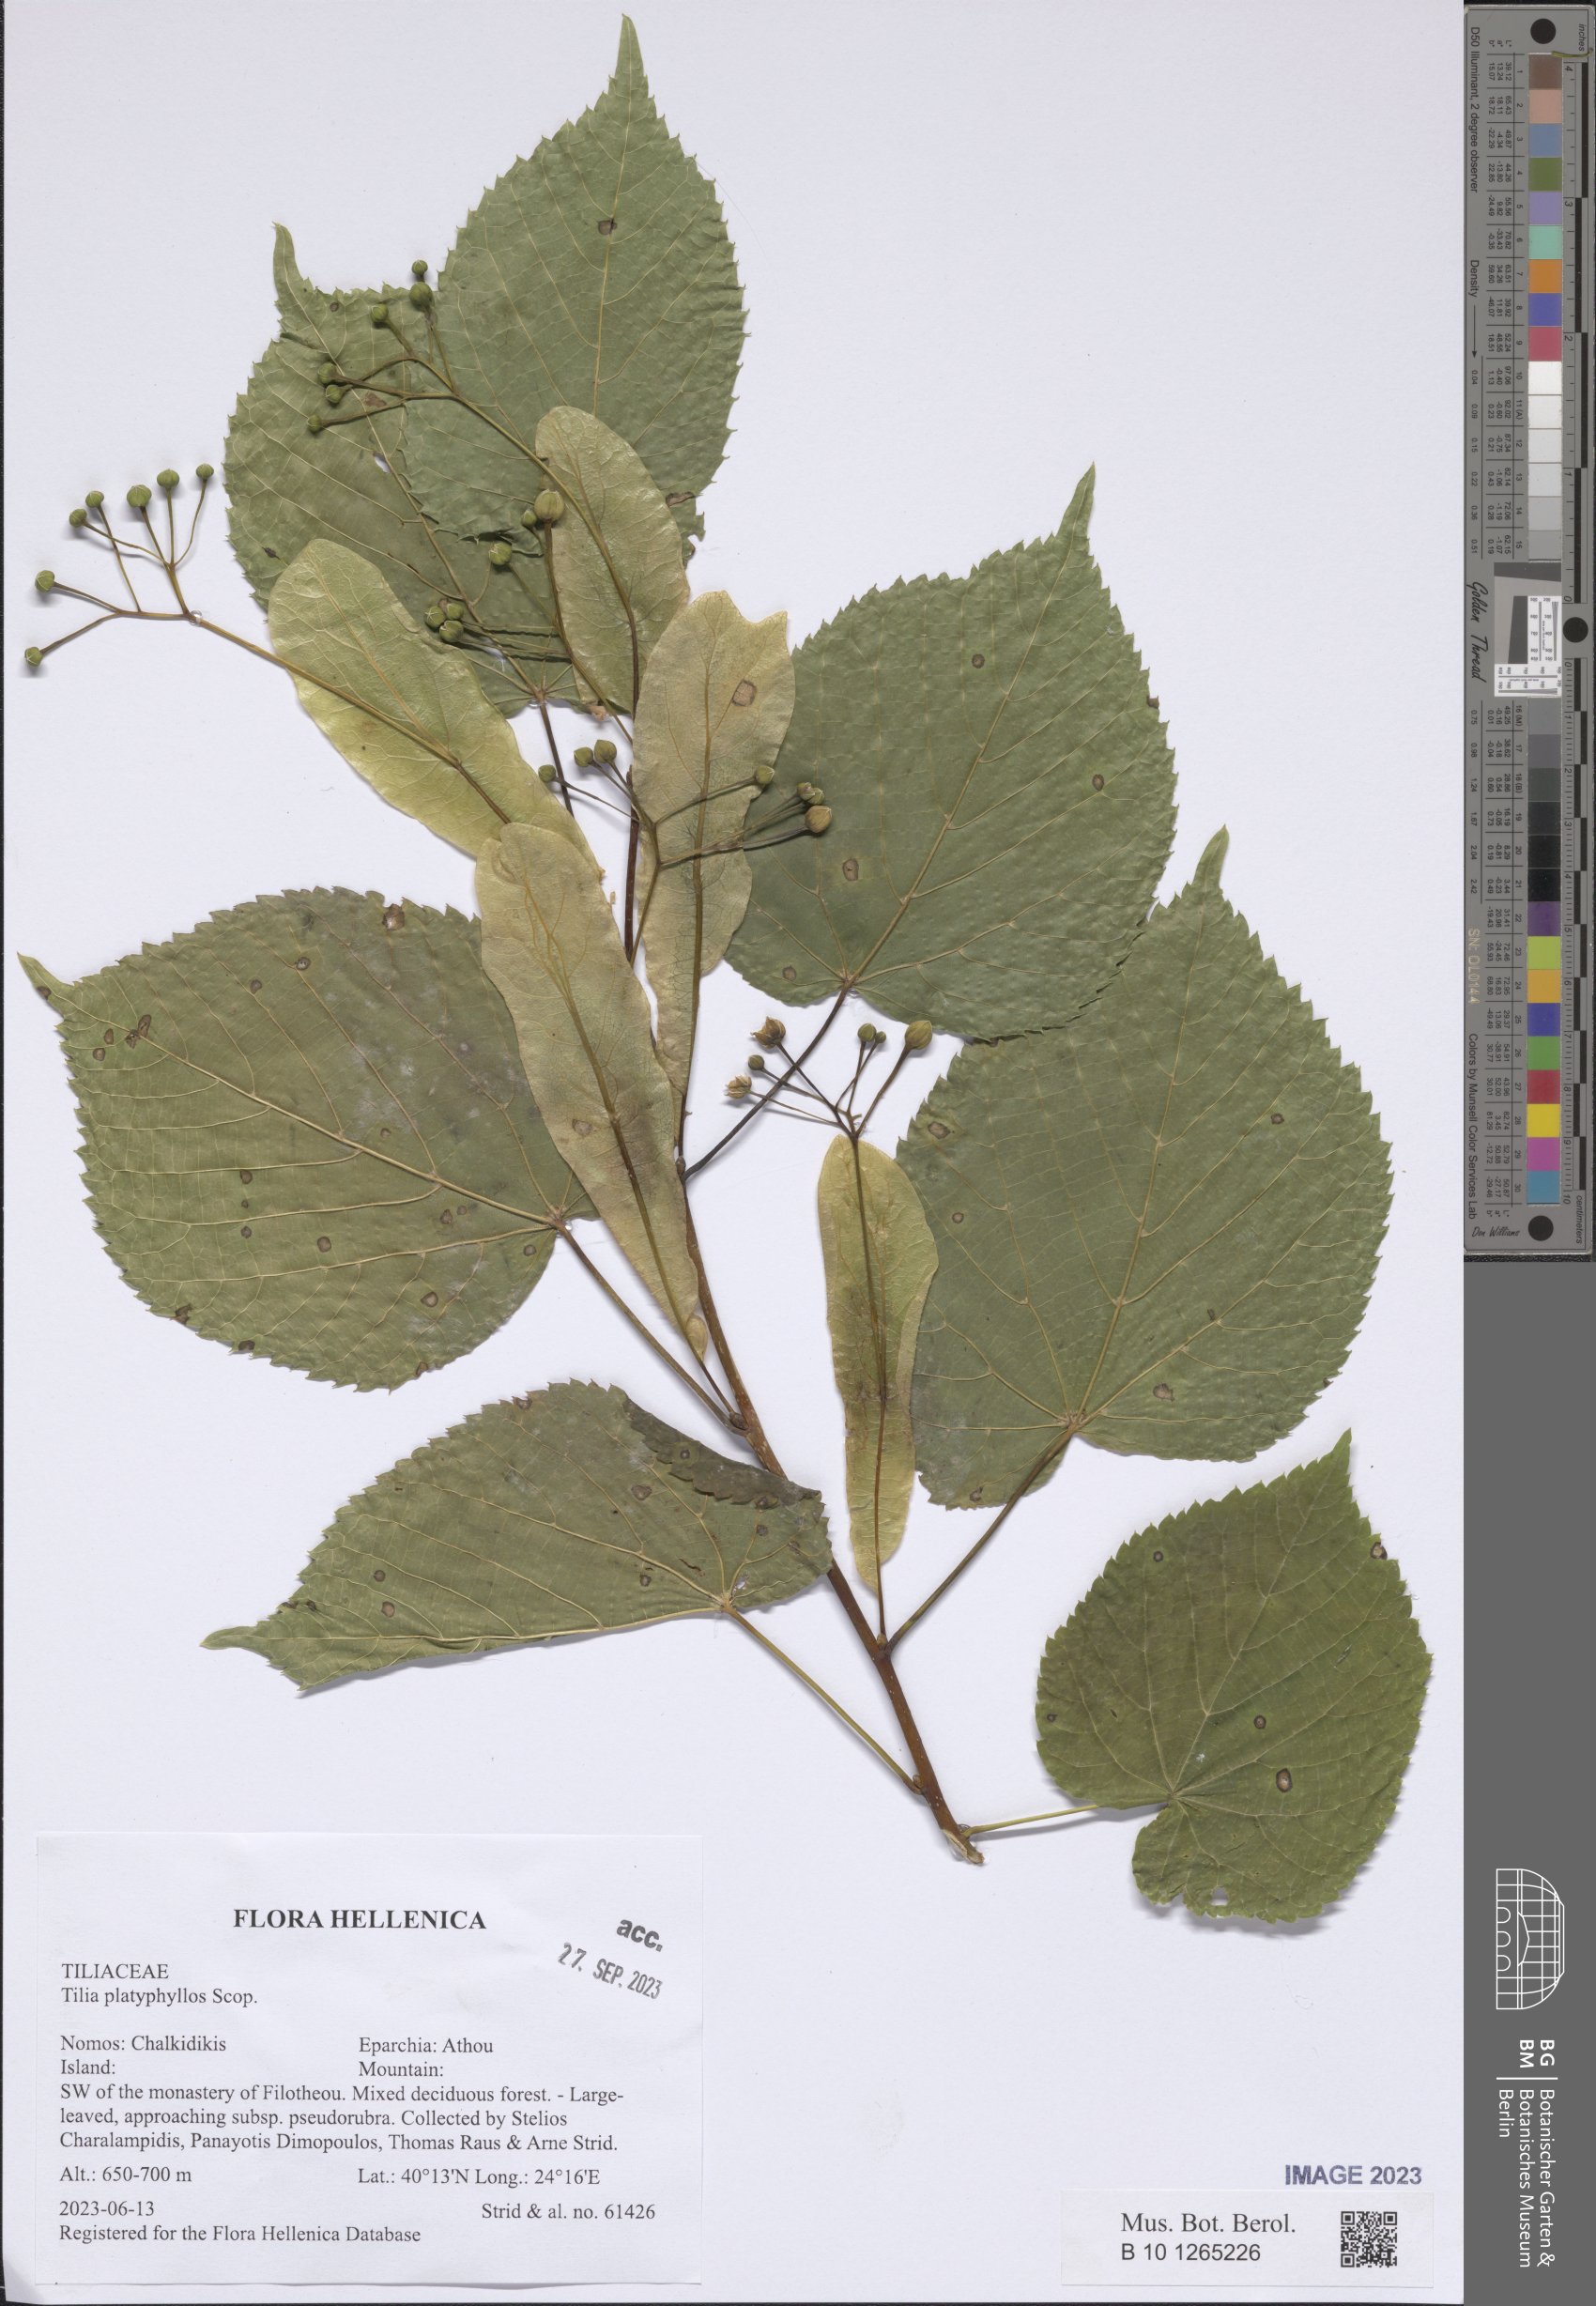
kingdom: Plantae
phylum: Tracheophyta
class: Magnoliopsida
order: Malvales
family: Malvaceae
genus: Tilia
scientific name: Tilia platyphyllos
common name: Large-leaved lime
